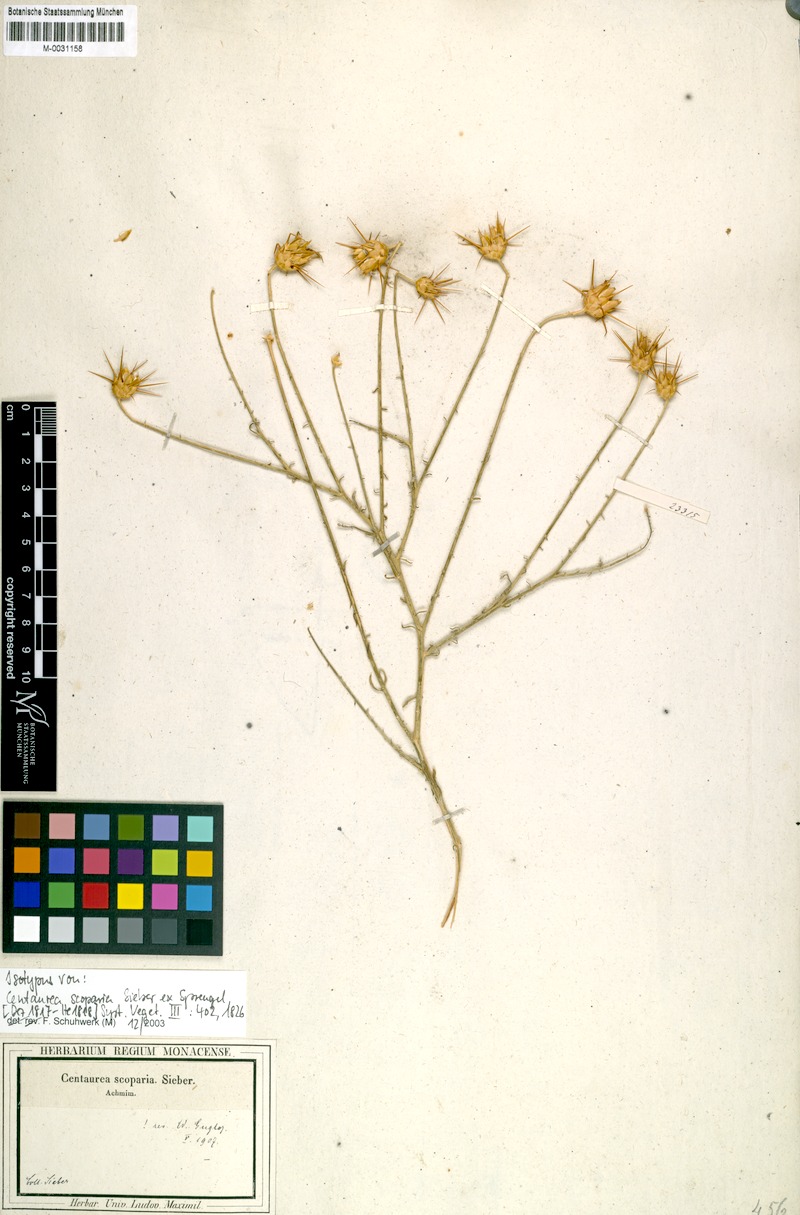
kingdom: Plantae
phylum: Tracheophyta
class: Magnoliopsida
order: Asterales
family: Asteraceae
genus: Centaurea
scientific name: Centaurea scoparia
